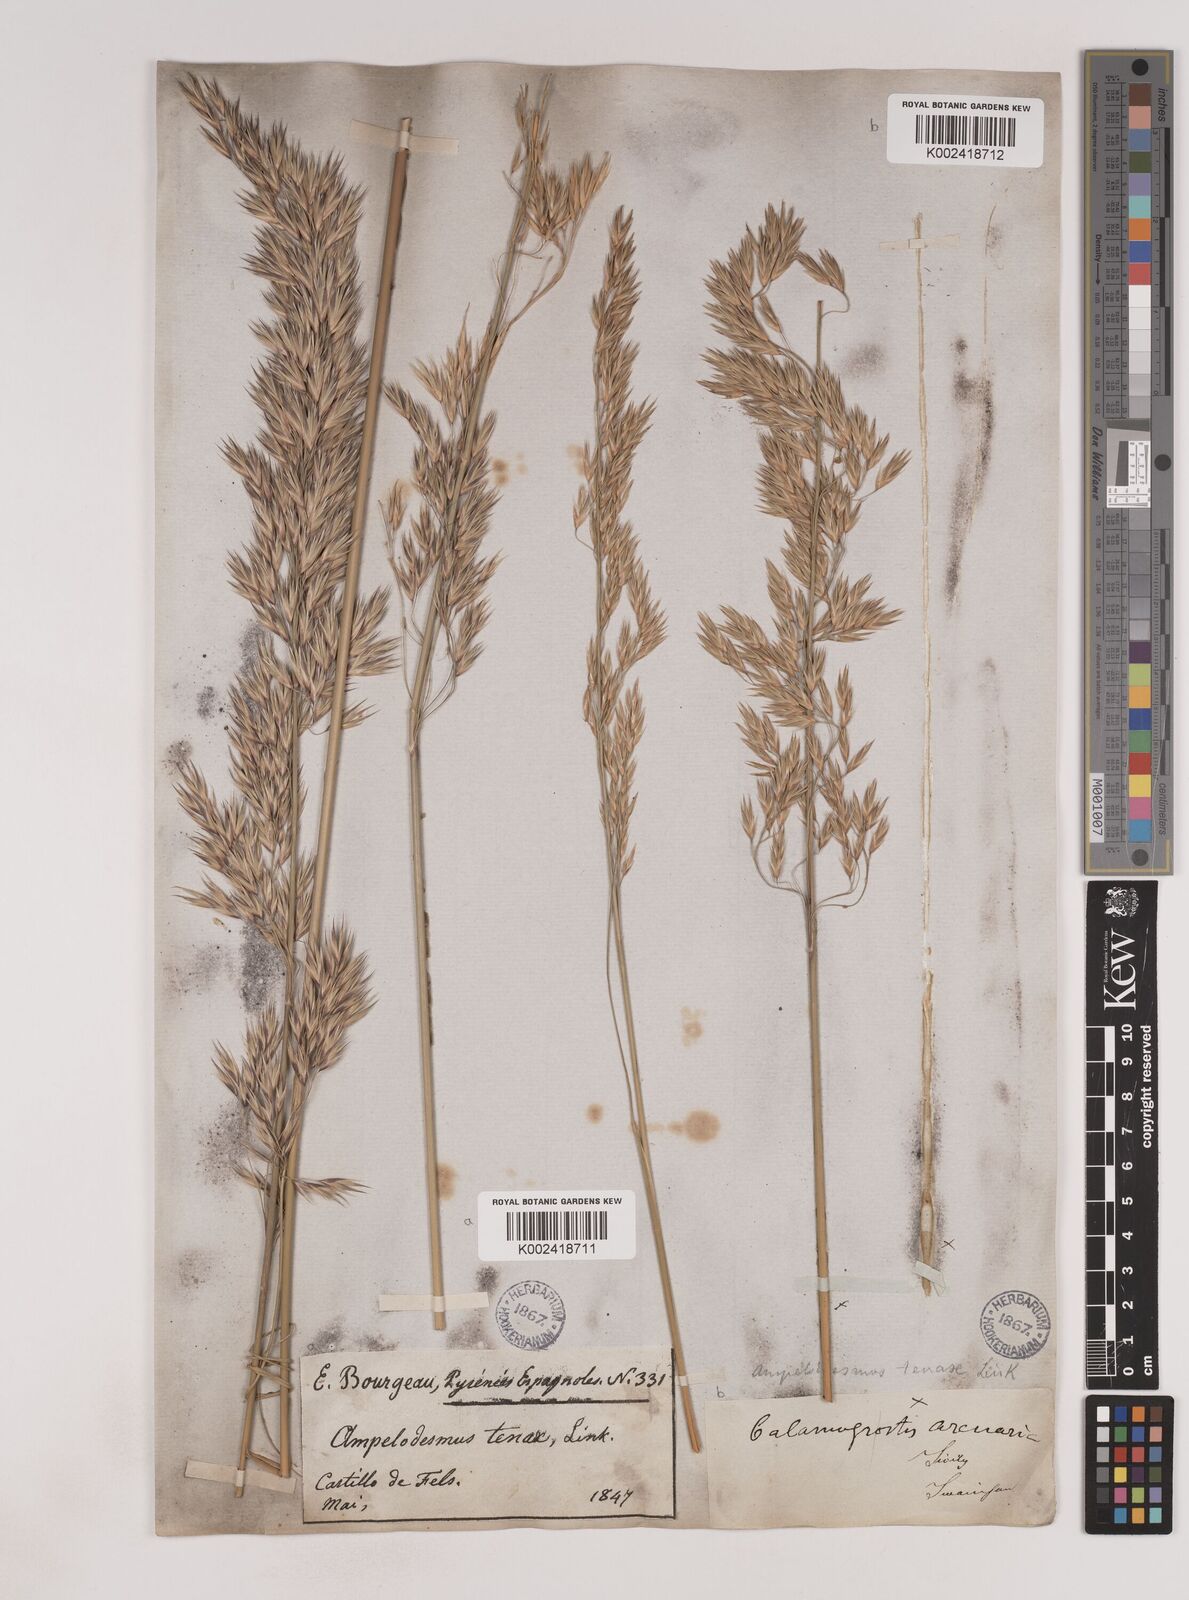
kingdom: Plantae
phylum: Tracheophyta
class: Liliopsida
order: Poales
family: Poaceae
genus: Ampelodesmos
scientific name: Ampelodesmos mauritanicus
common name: Mauritanian grass
